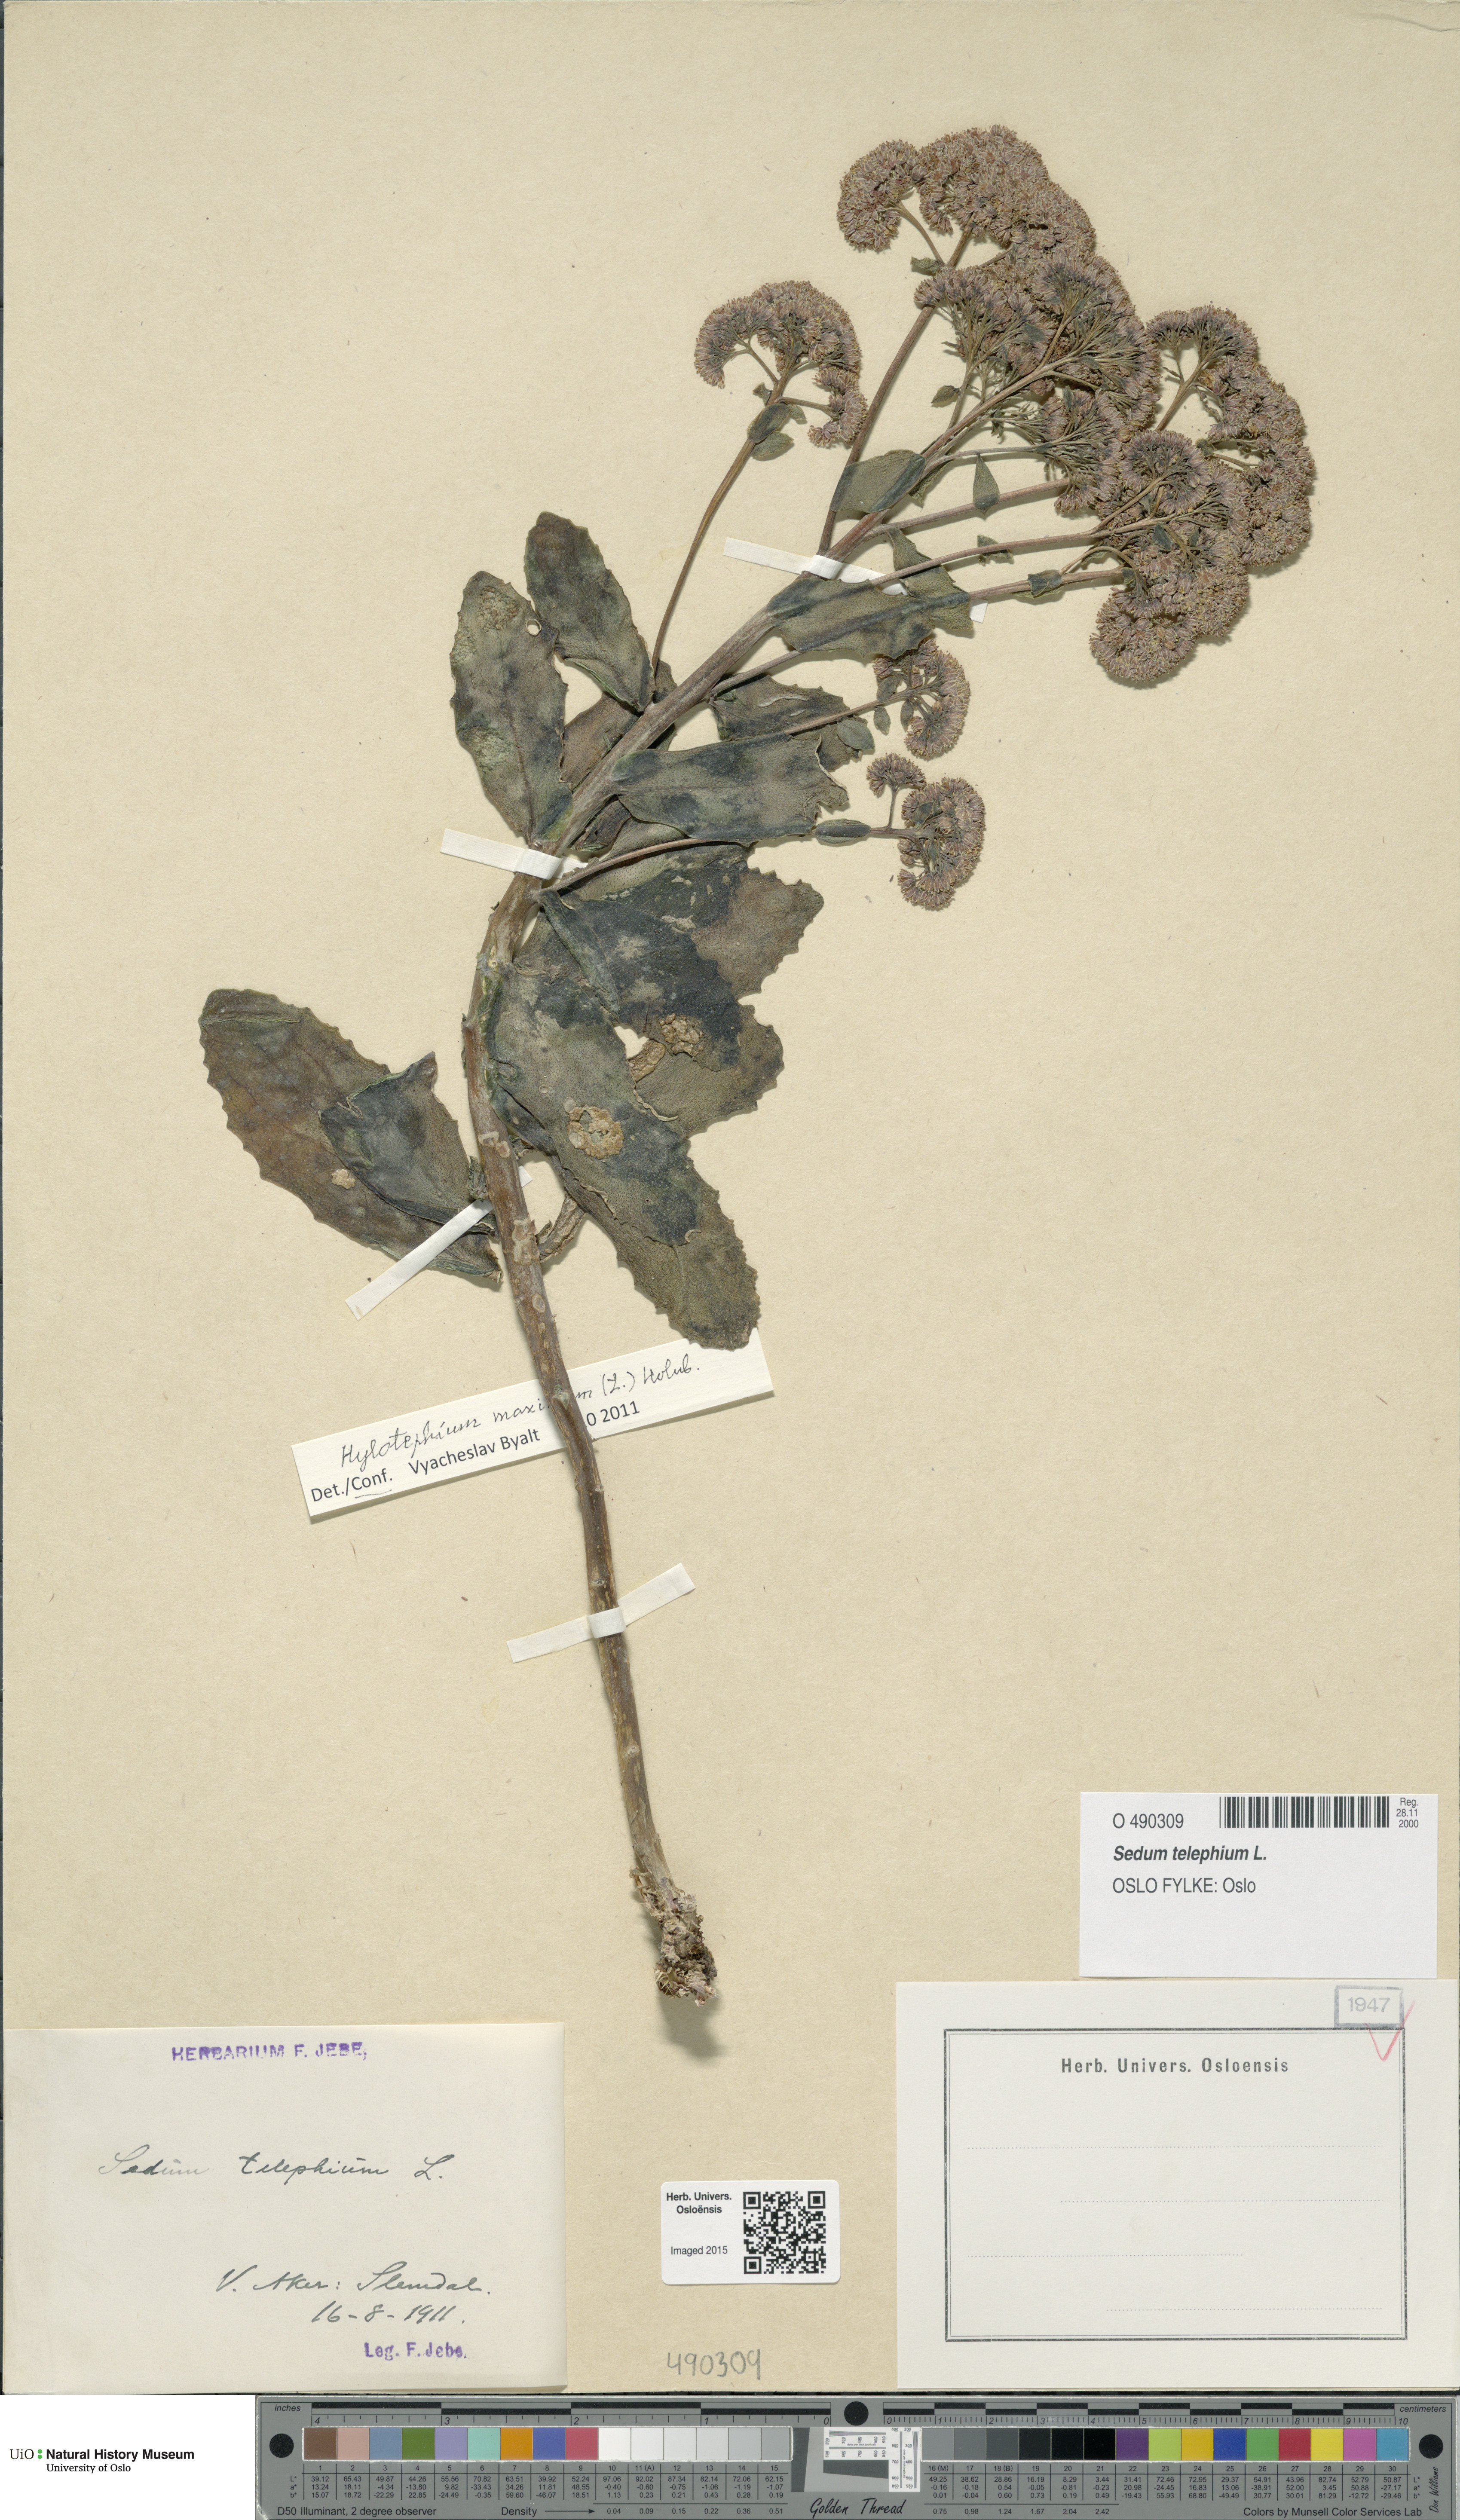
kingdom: Plantae
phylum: Tracheophyta
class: Magnoliopsida
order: Saxifragales
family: Crassulaceae
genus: Hylotelephium
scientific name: Hylotelephium telephium
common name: Live-forever
